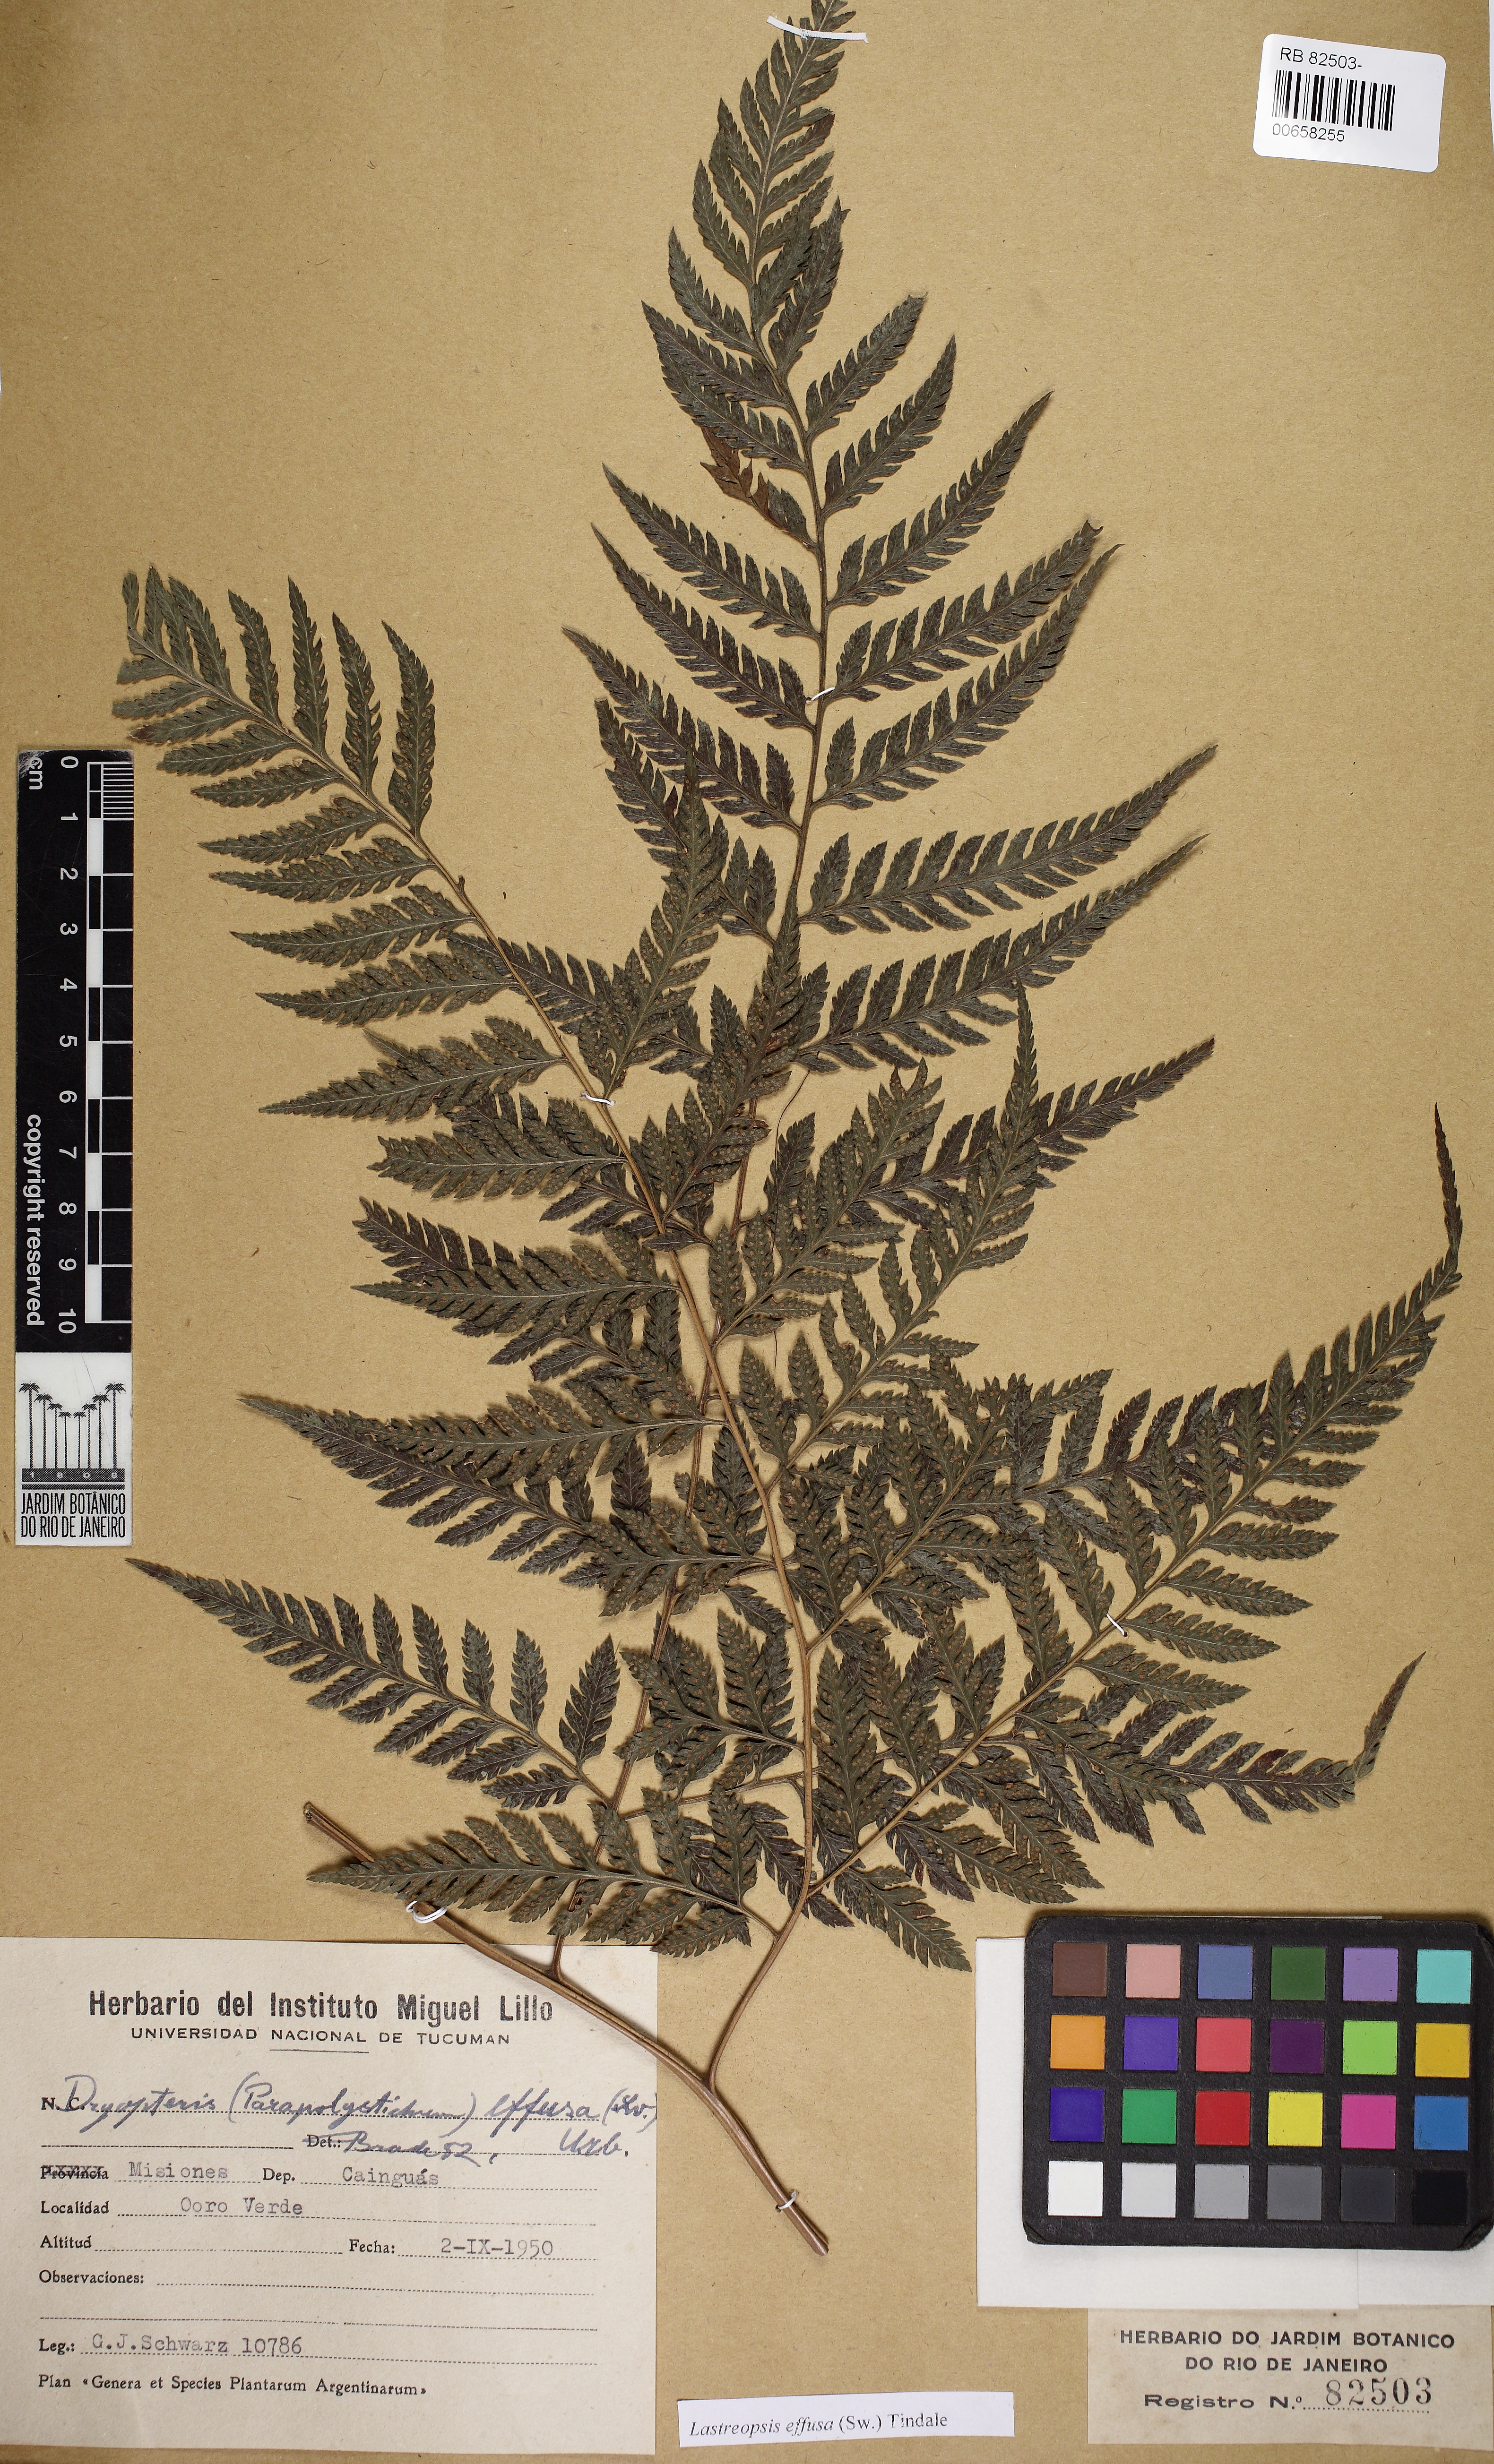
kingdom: Plantae
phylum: Tracheophyta
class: Polypodiopsida
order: Polypodiales
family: Dryopteridaceae
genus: Parapolystichum
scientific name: Parapolystichum effusum
